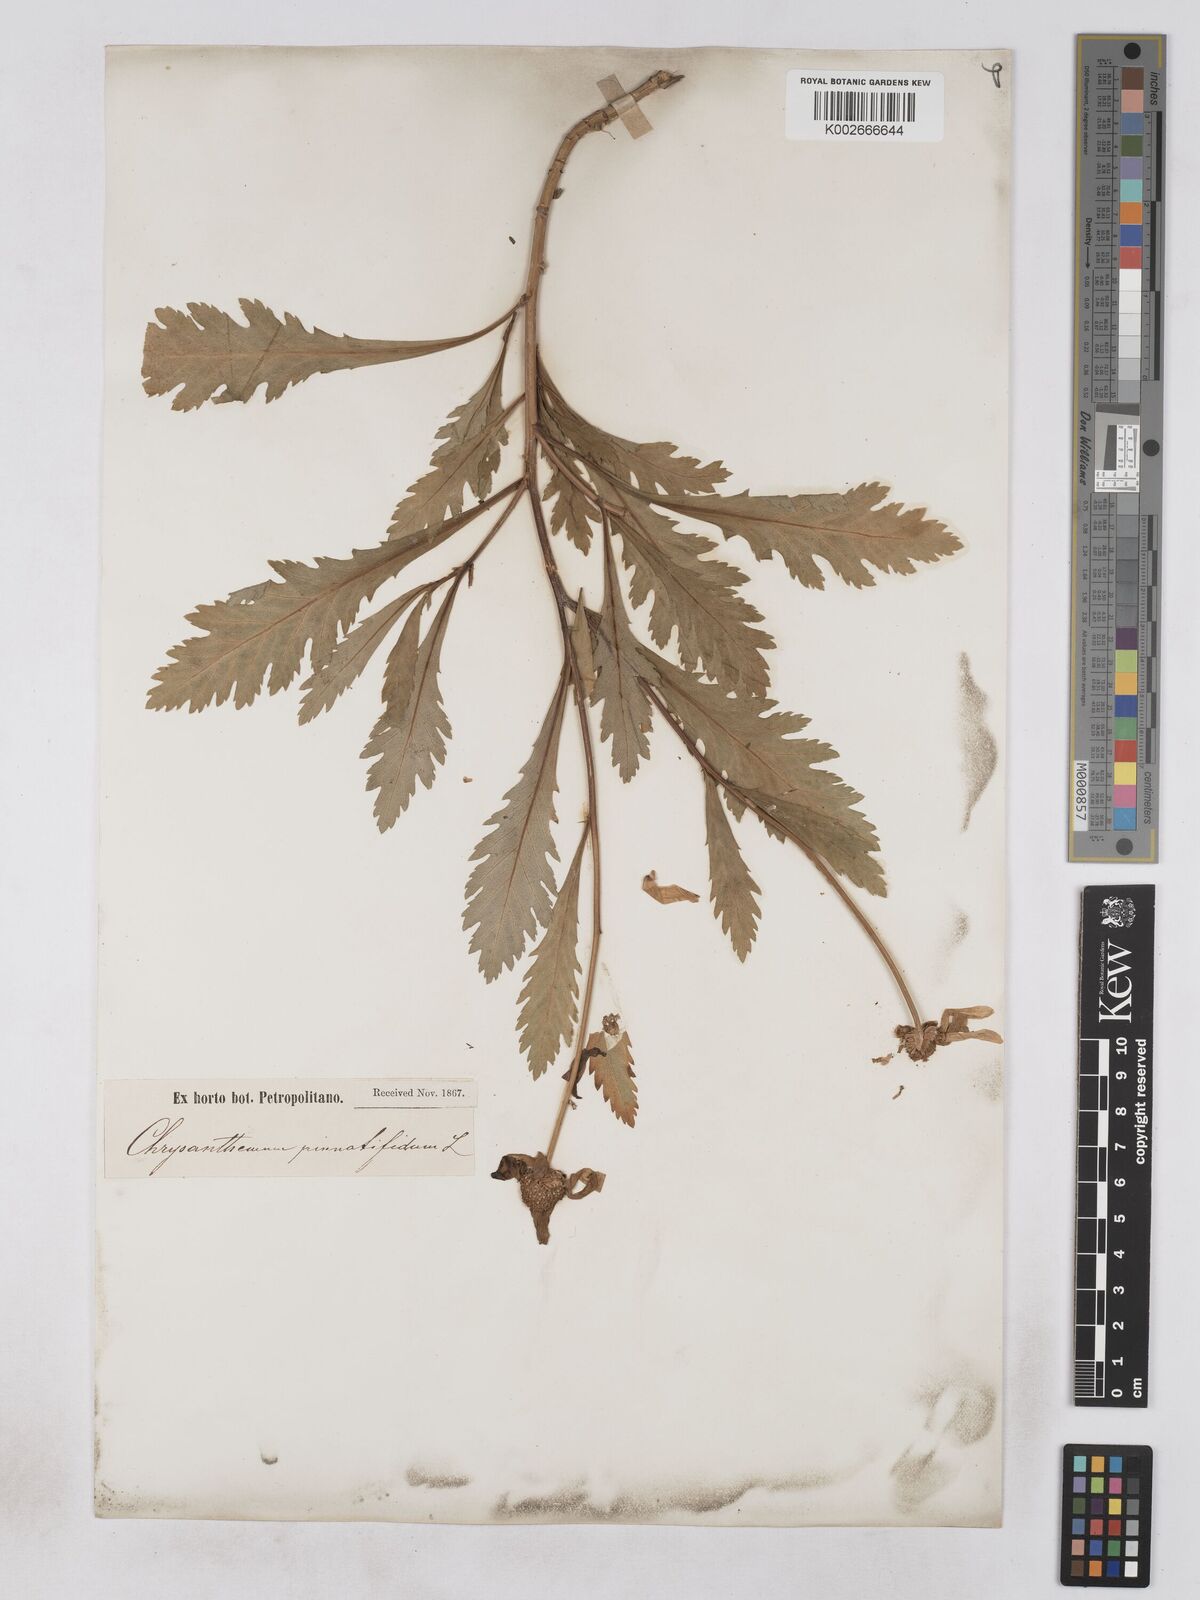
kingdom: Plantae
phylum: Tracheophyta
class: Magnoliopsida
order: Asterales
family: Asteraceae
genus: Argyranthemum
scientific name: Argyranthemum
